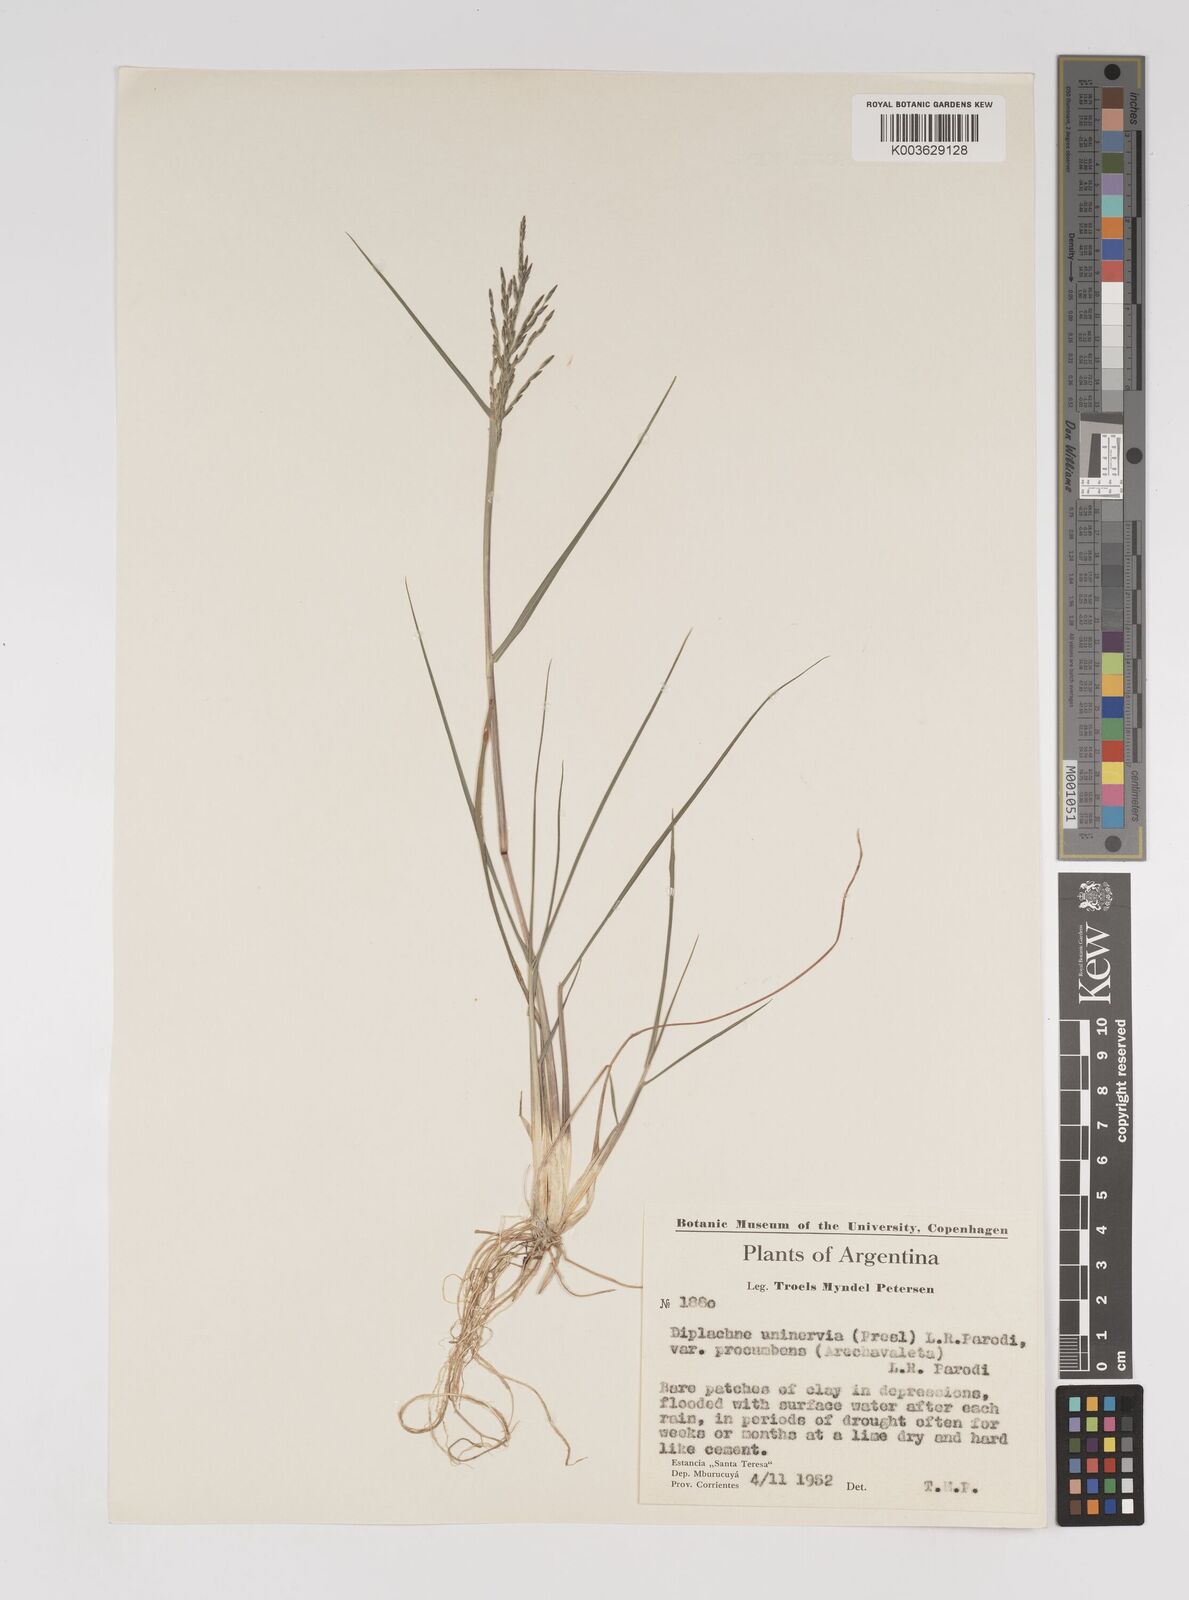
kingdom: Plantae
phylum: Tracheophyta
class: Liliopsida
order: Poales
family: Poaceae
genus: Diplachne
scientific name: Diplachne fusca
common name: Brown beetle grass
